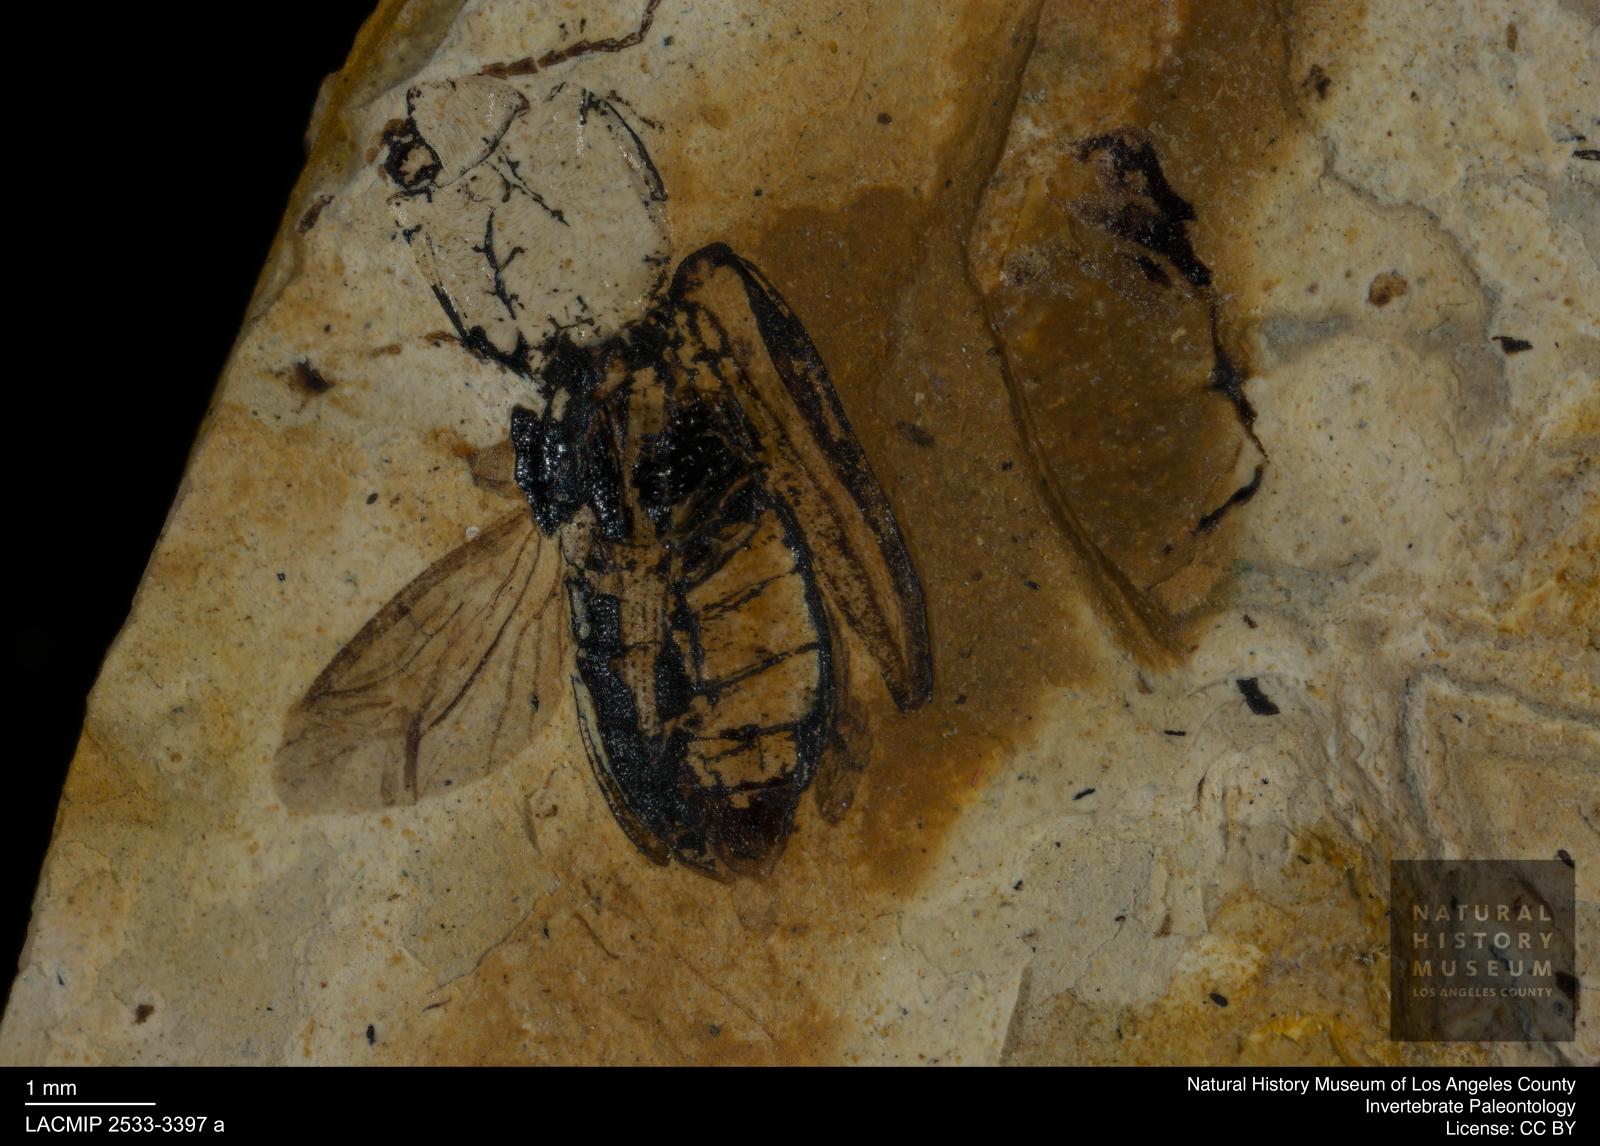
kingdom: Animalia
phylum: Arthropoda
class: Insecta
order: Coleoptera
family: Elateridae
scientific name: Elateridae
